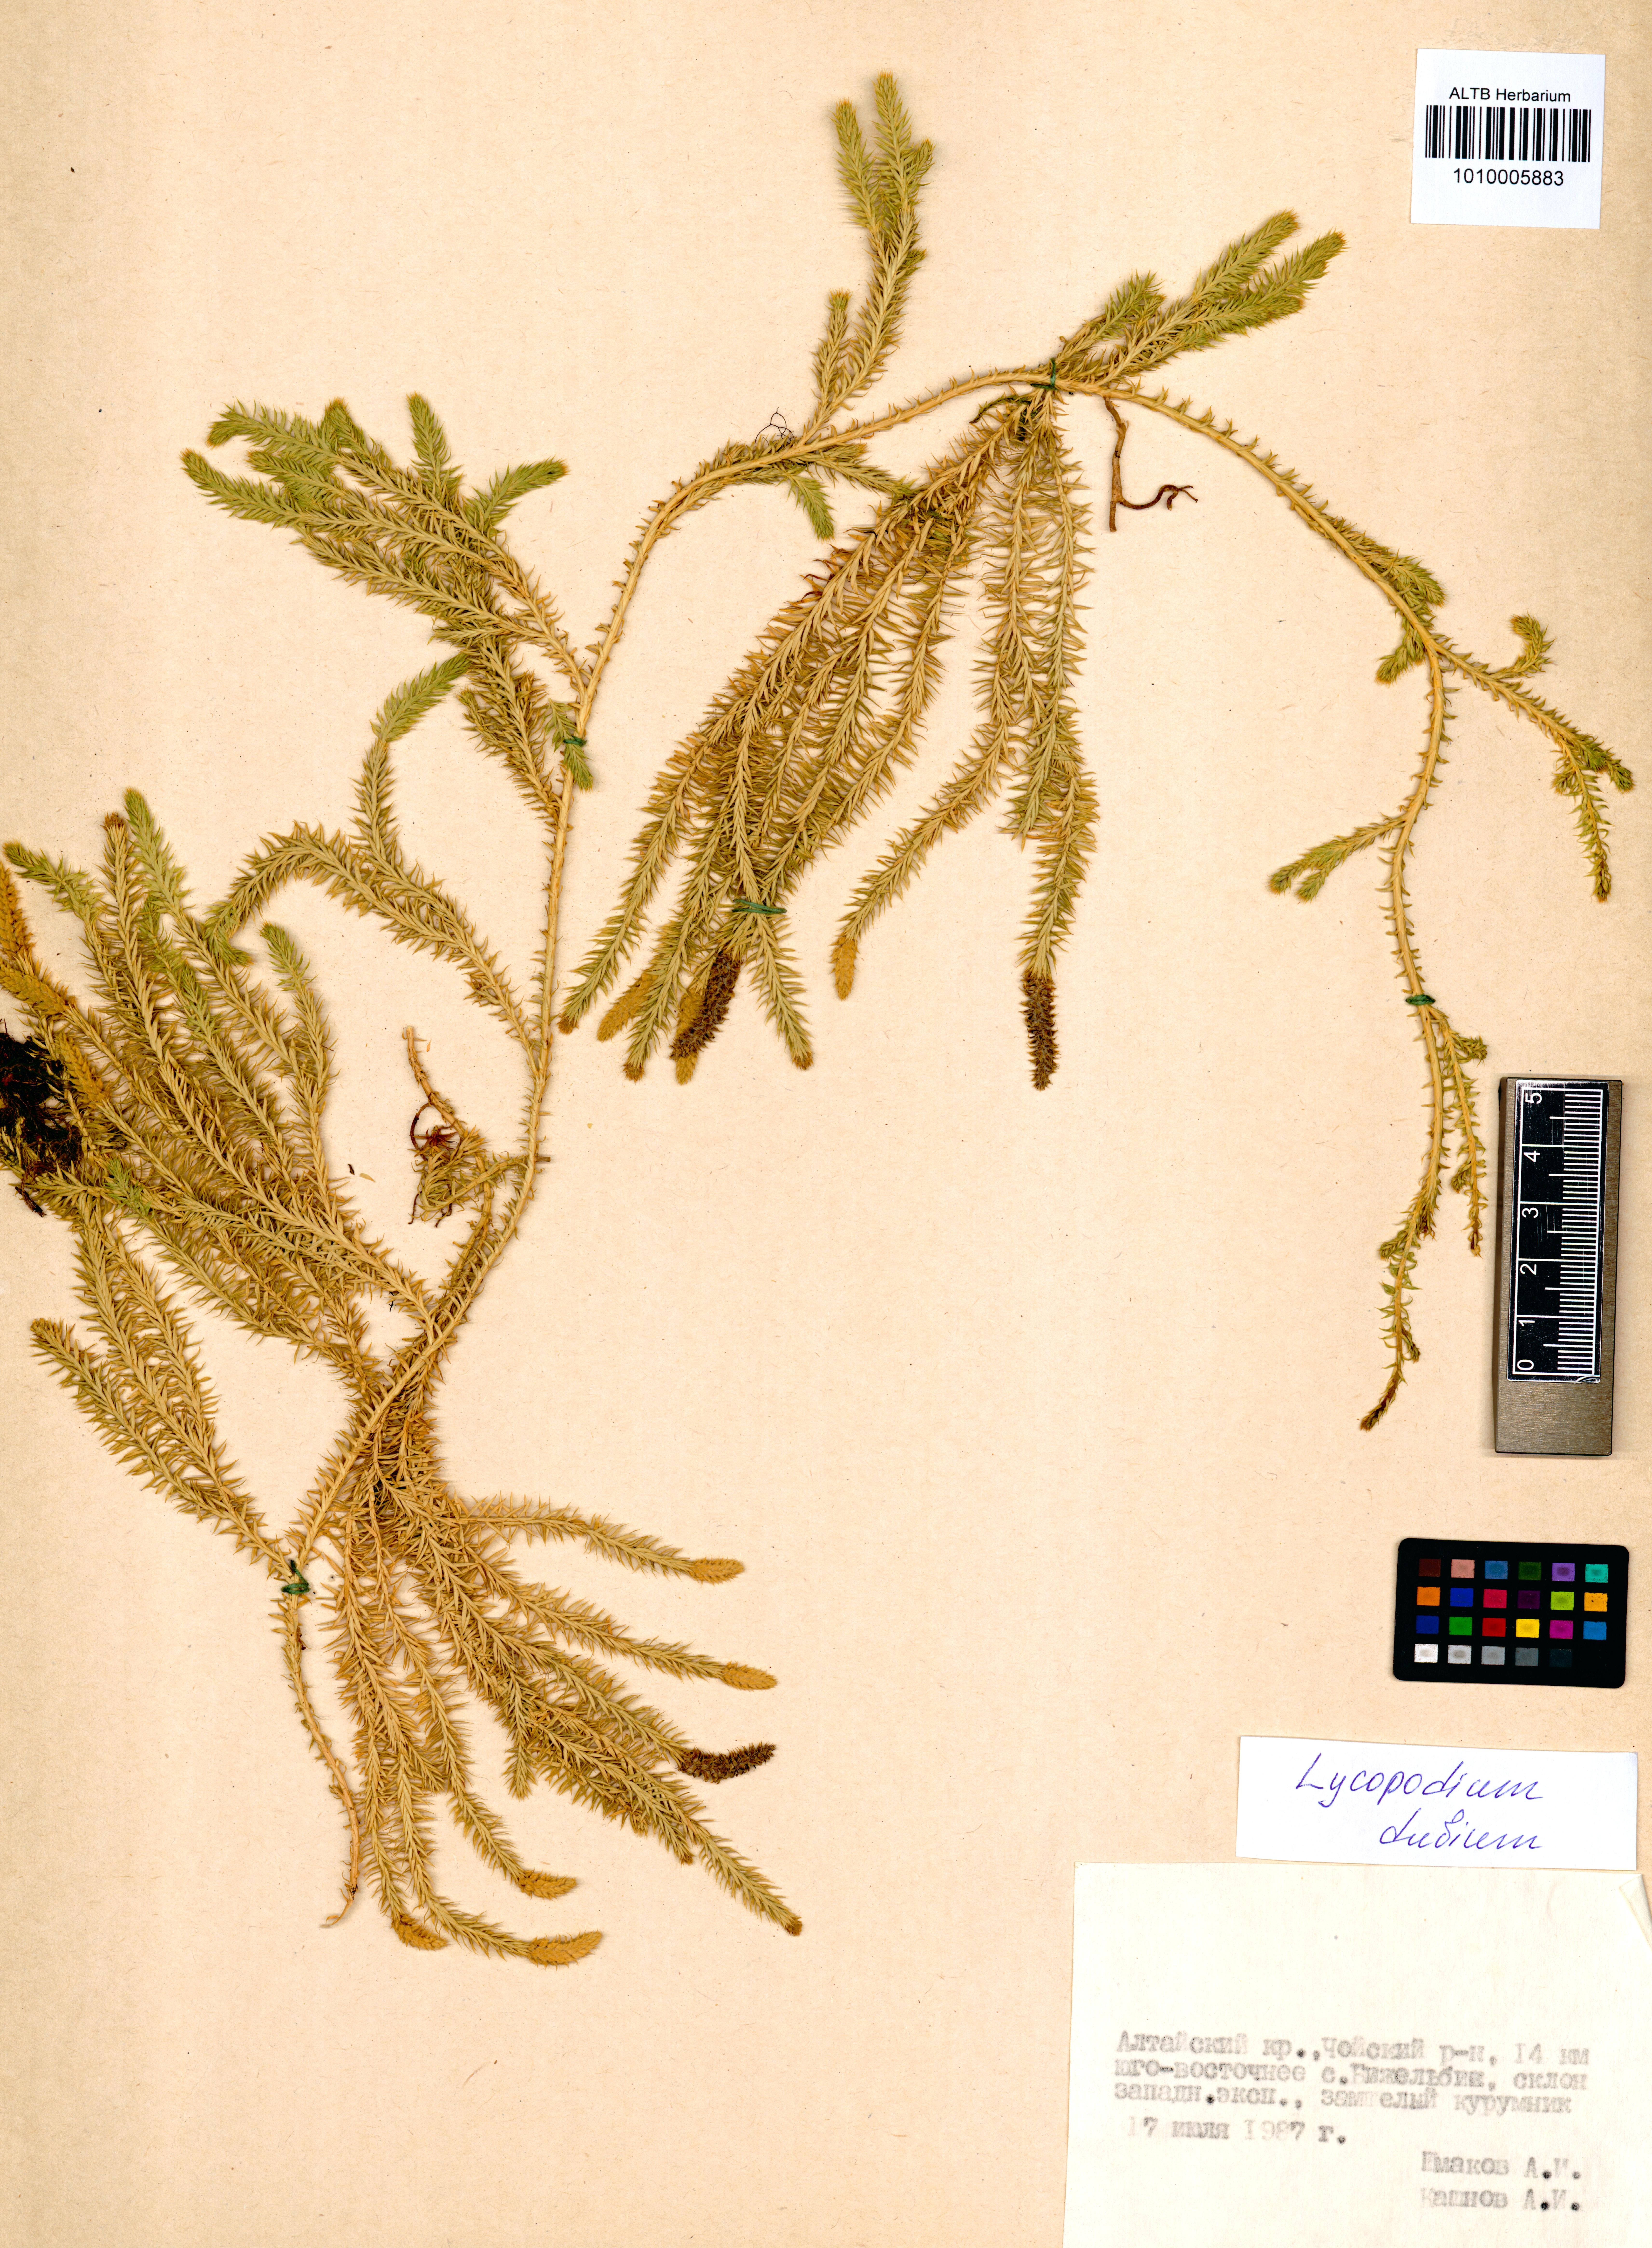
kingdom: Plantae
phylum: Tracheophyta
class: Lycopodiopsida
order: Lycopodiales
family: Lycopodiaceae
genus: Spinulum
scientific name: Spinulum annotinum
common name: Interrupted club-moss
